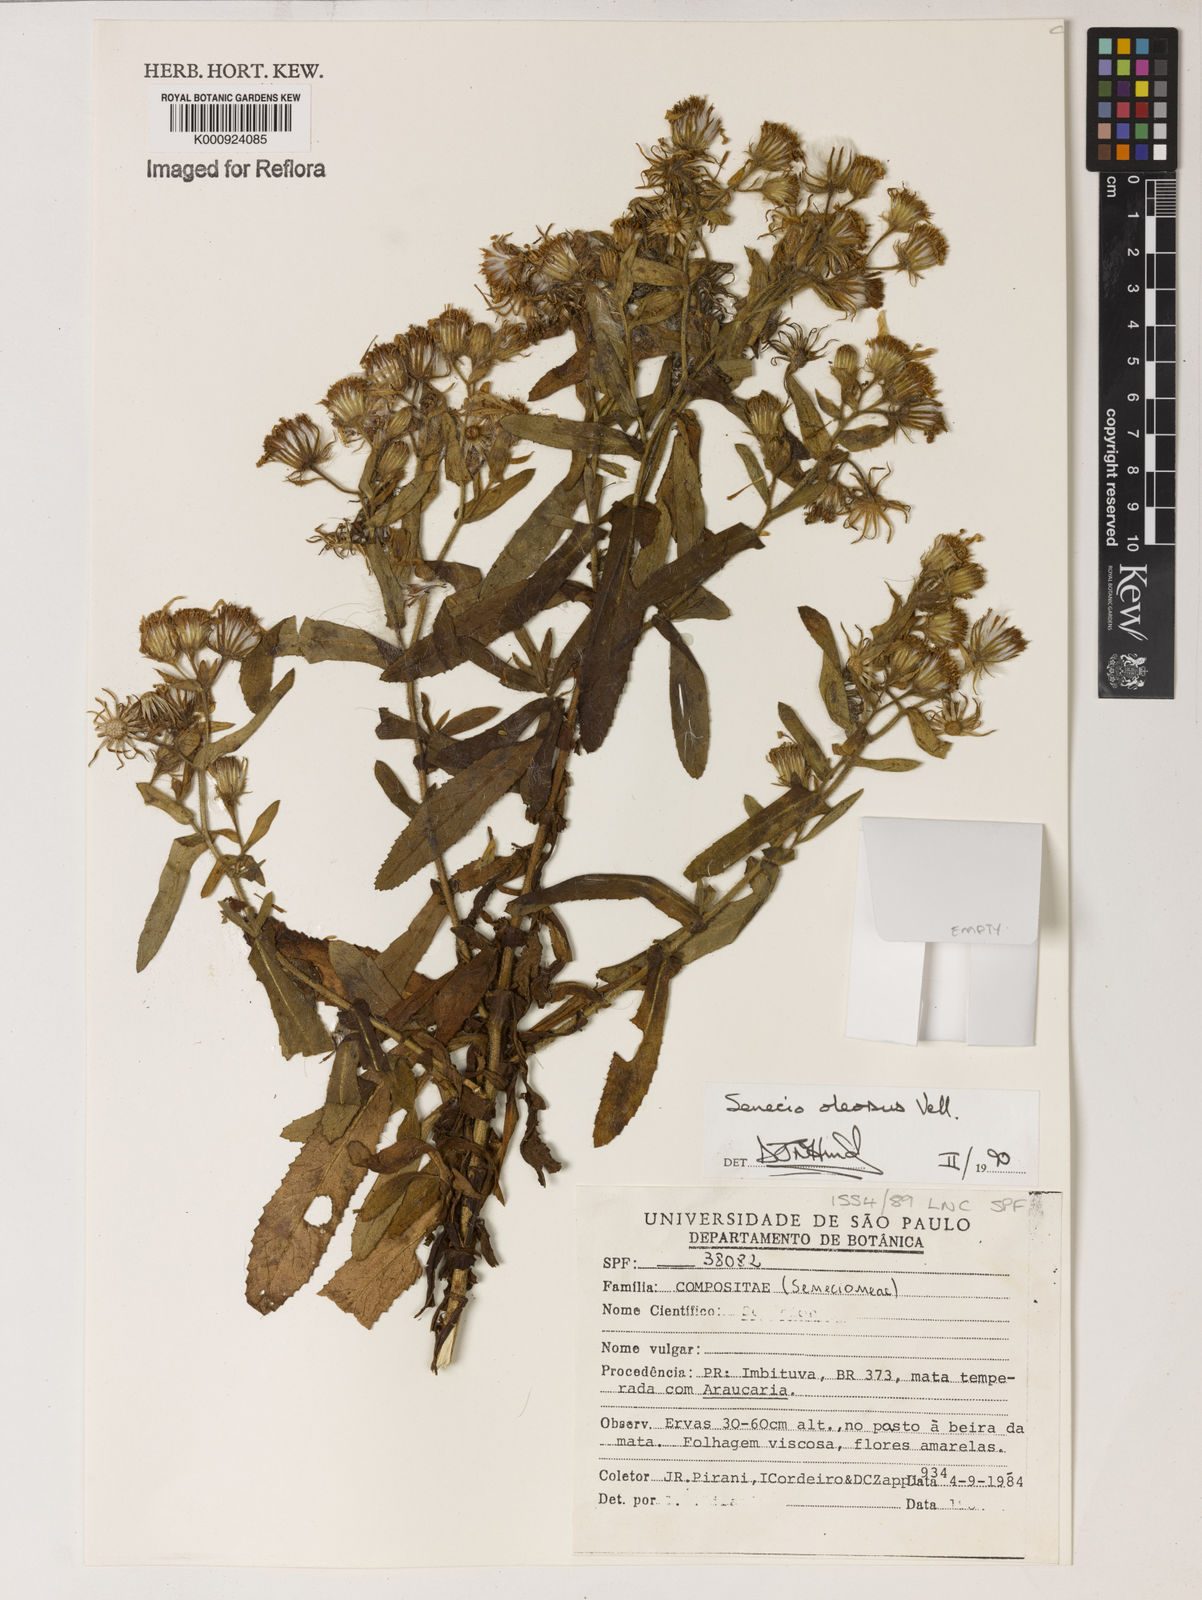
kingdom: Plantae
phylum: Tracheophyta
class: Magnoliopsida
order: Asterales
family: Asteraceae
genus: Senecio
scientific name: Senecio oleosus
